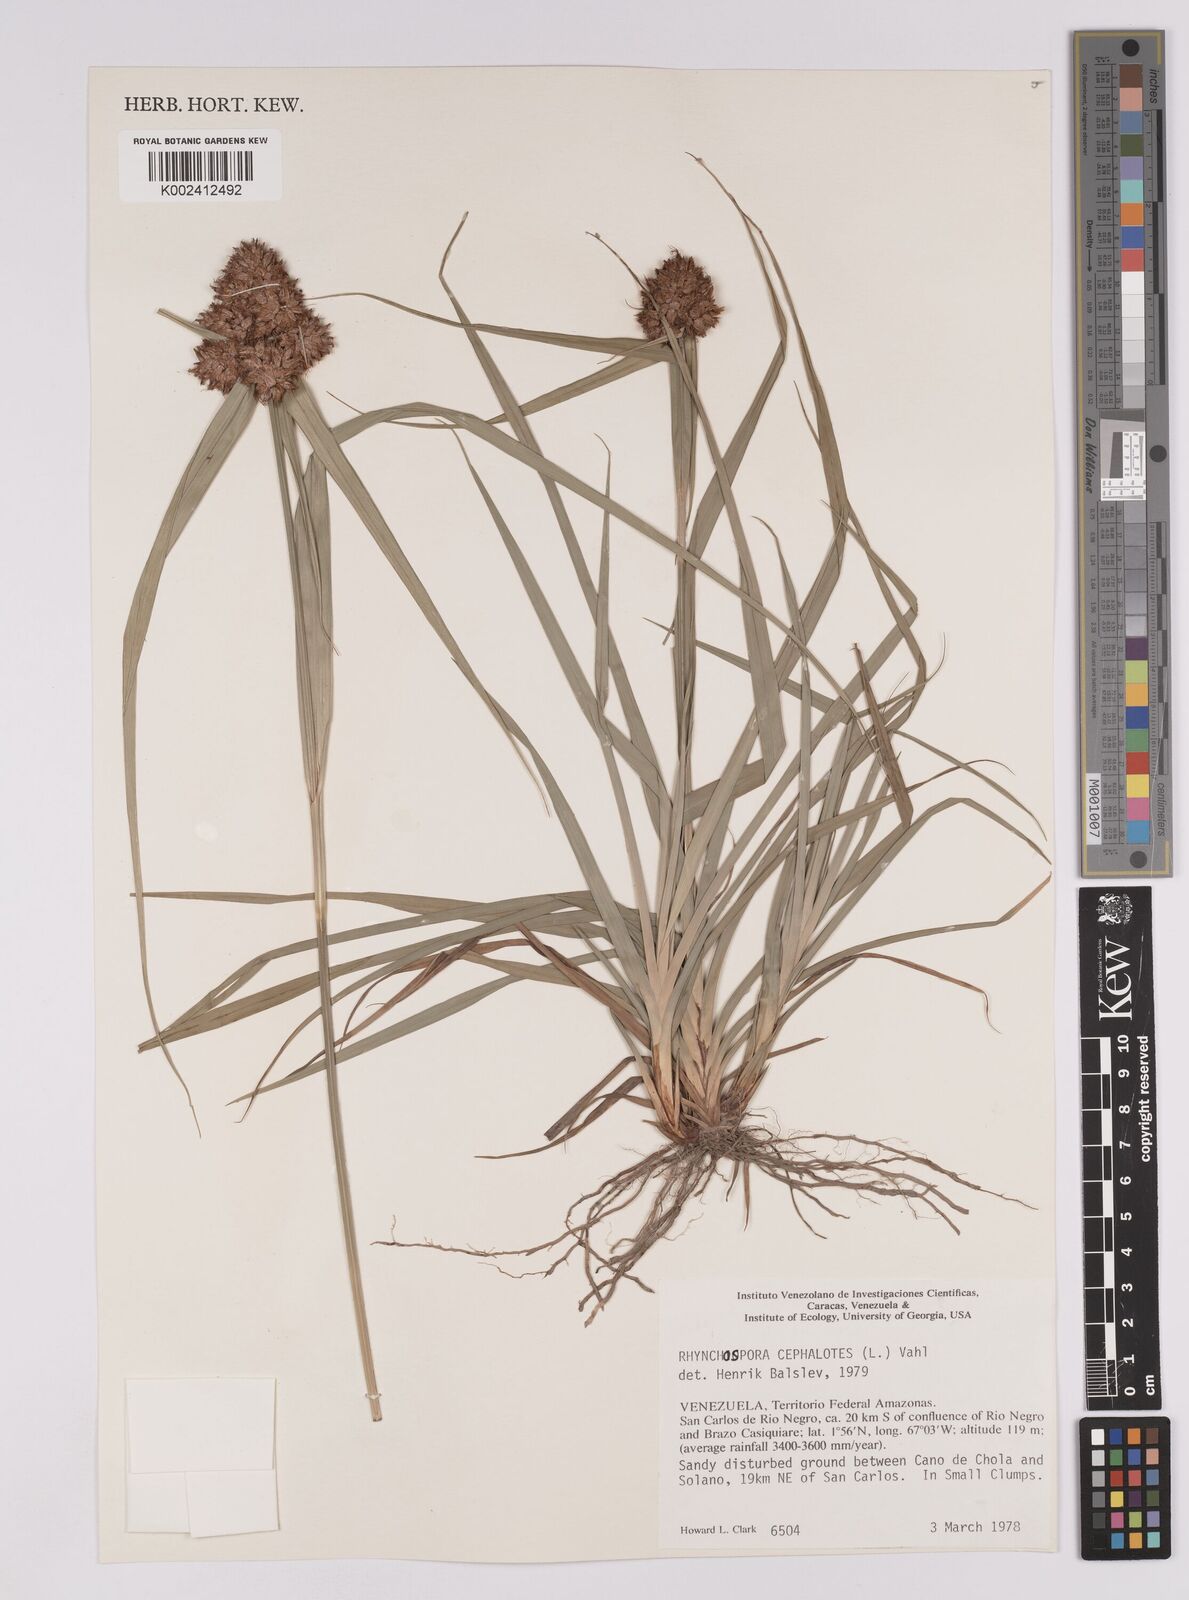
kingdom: Plantae
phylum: Tracheophyta
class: Liliopsida
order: Poales
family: Cyperaceae
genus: Rhynchospora
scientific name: Rhynchospora cephalotes
